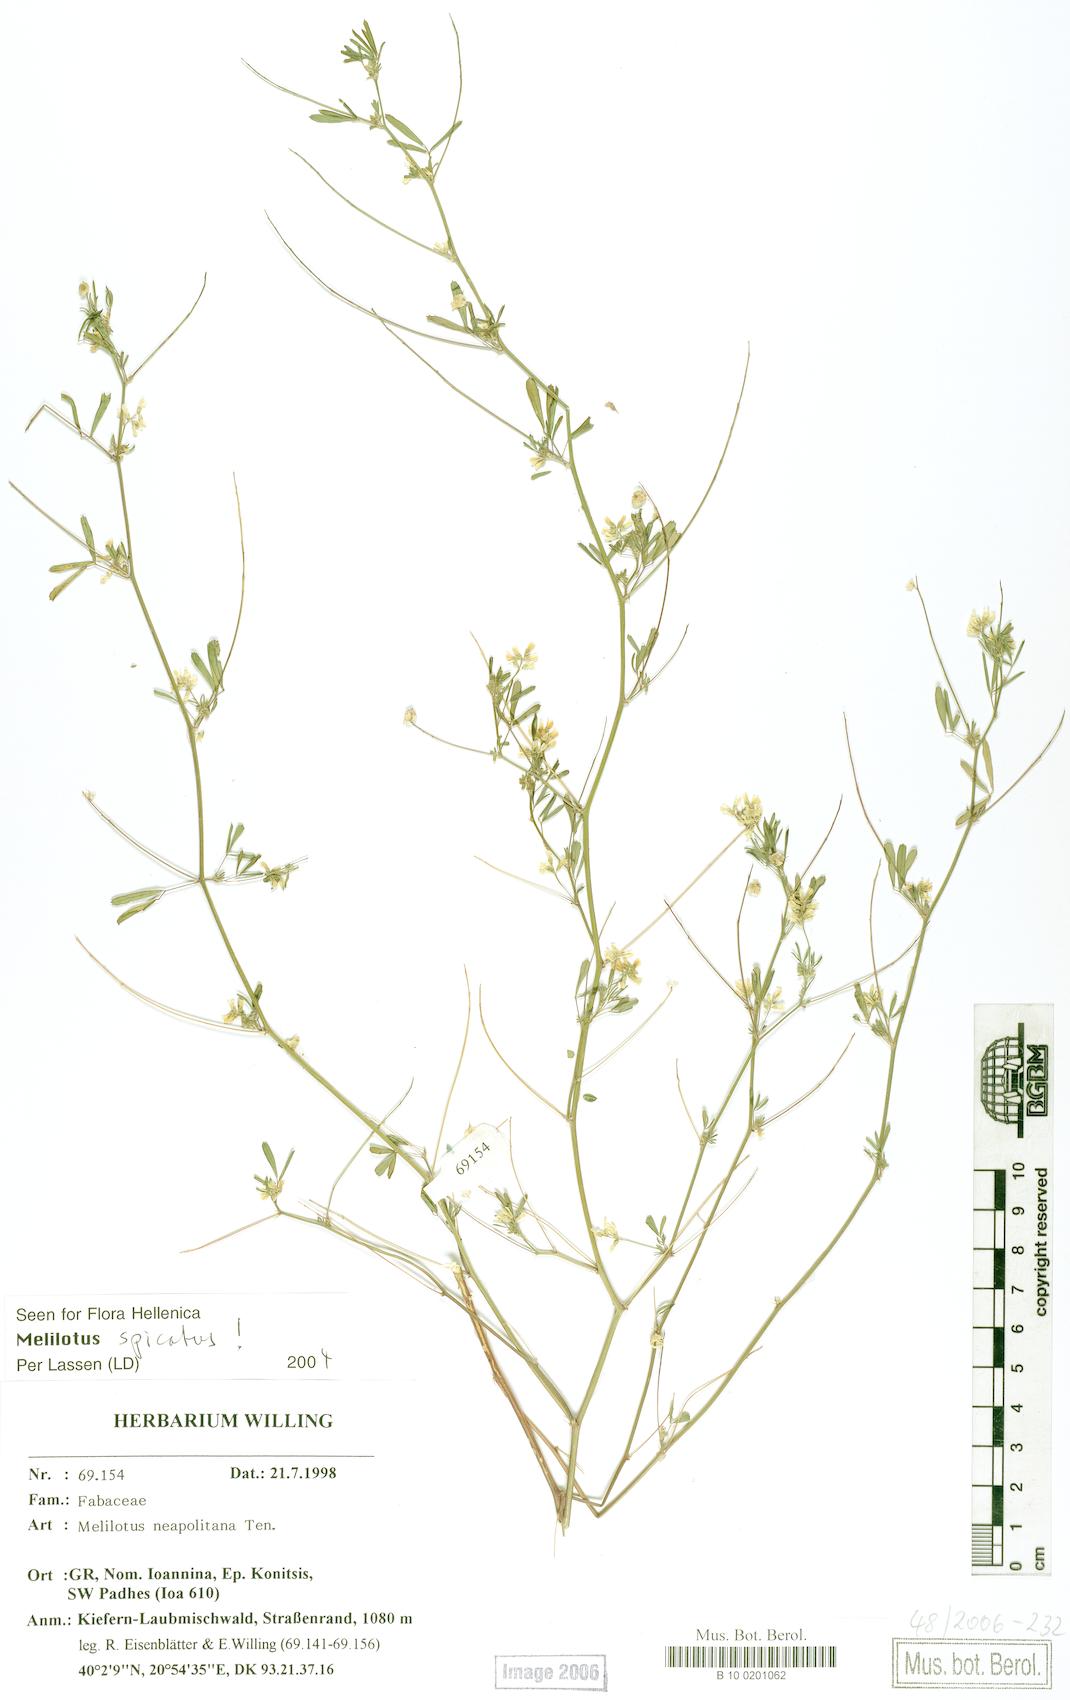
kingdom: Plantae
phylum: Tracheophyta
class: Magnoliopsida
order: Fabales
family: Fabaceae
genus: Melilotus
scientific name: Melilotus neapolitanus
